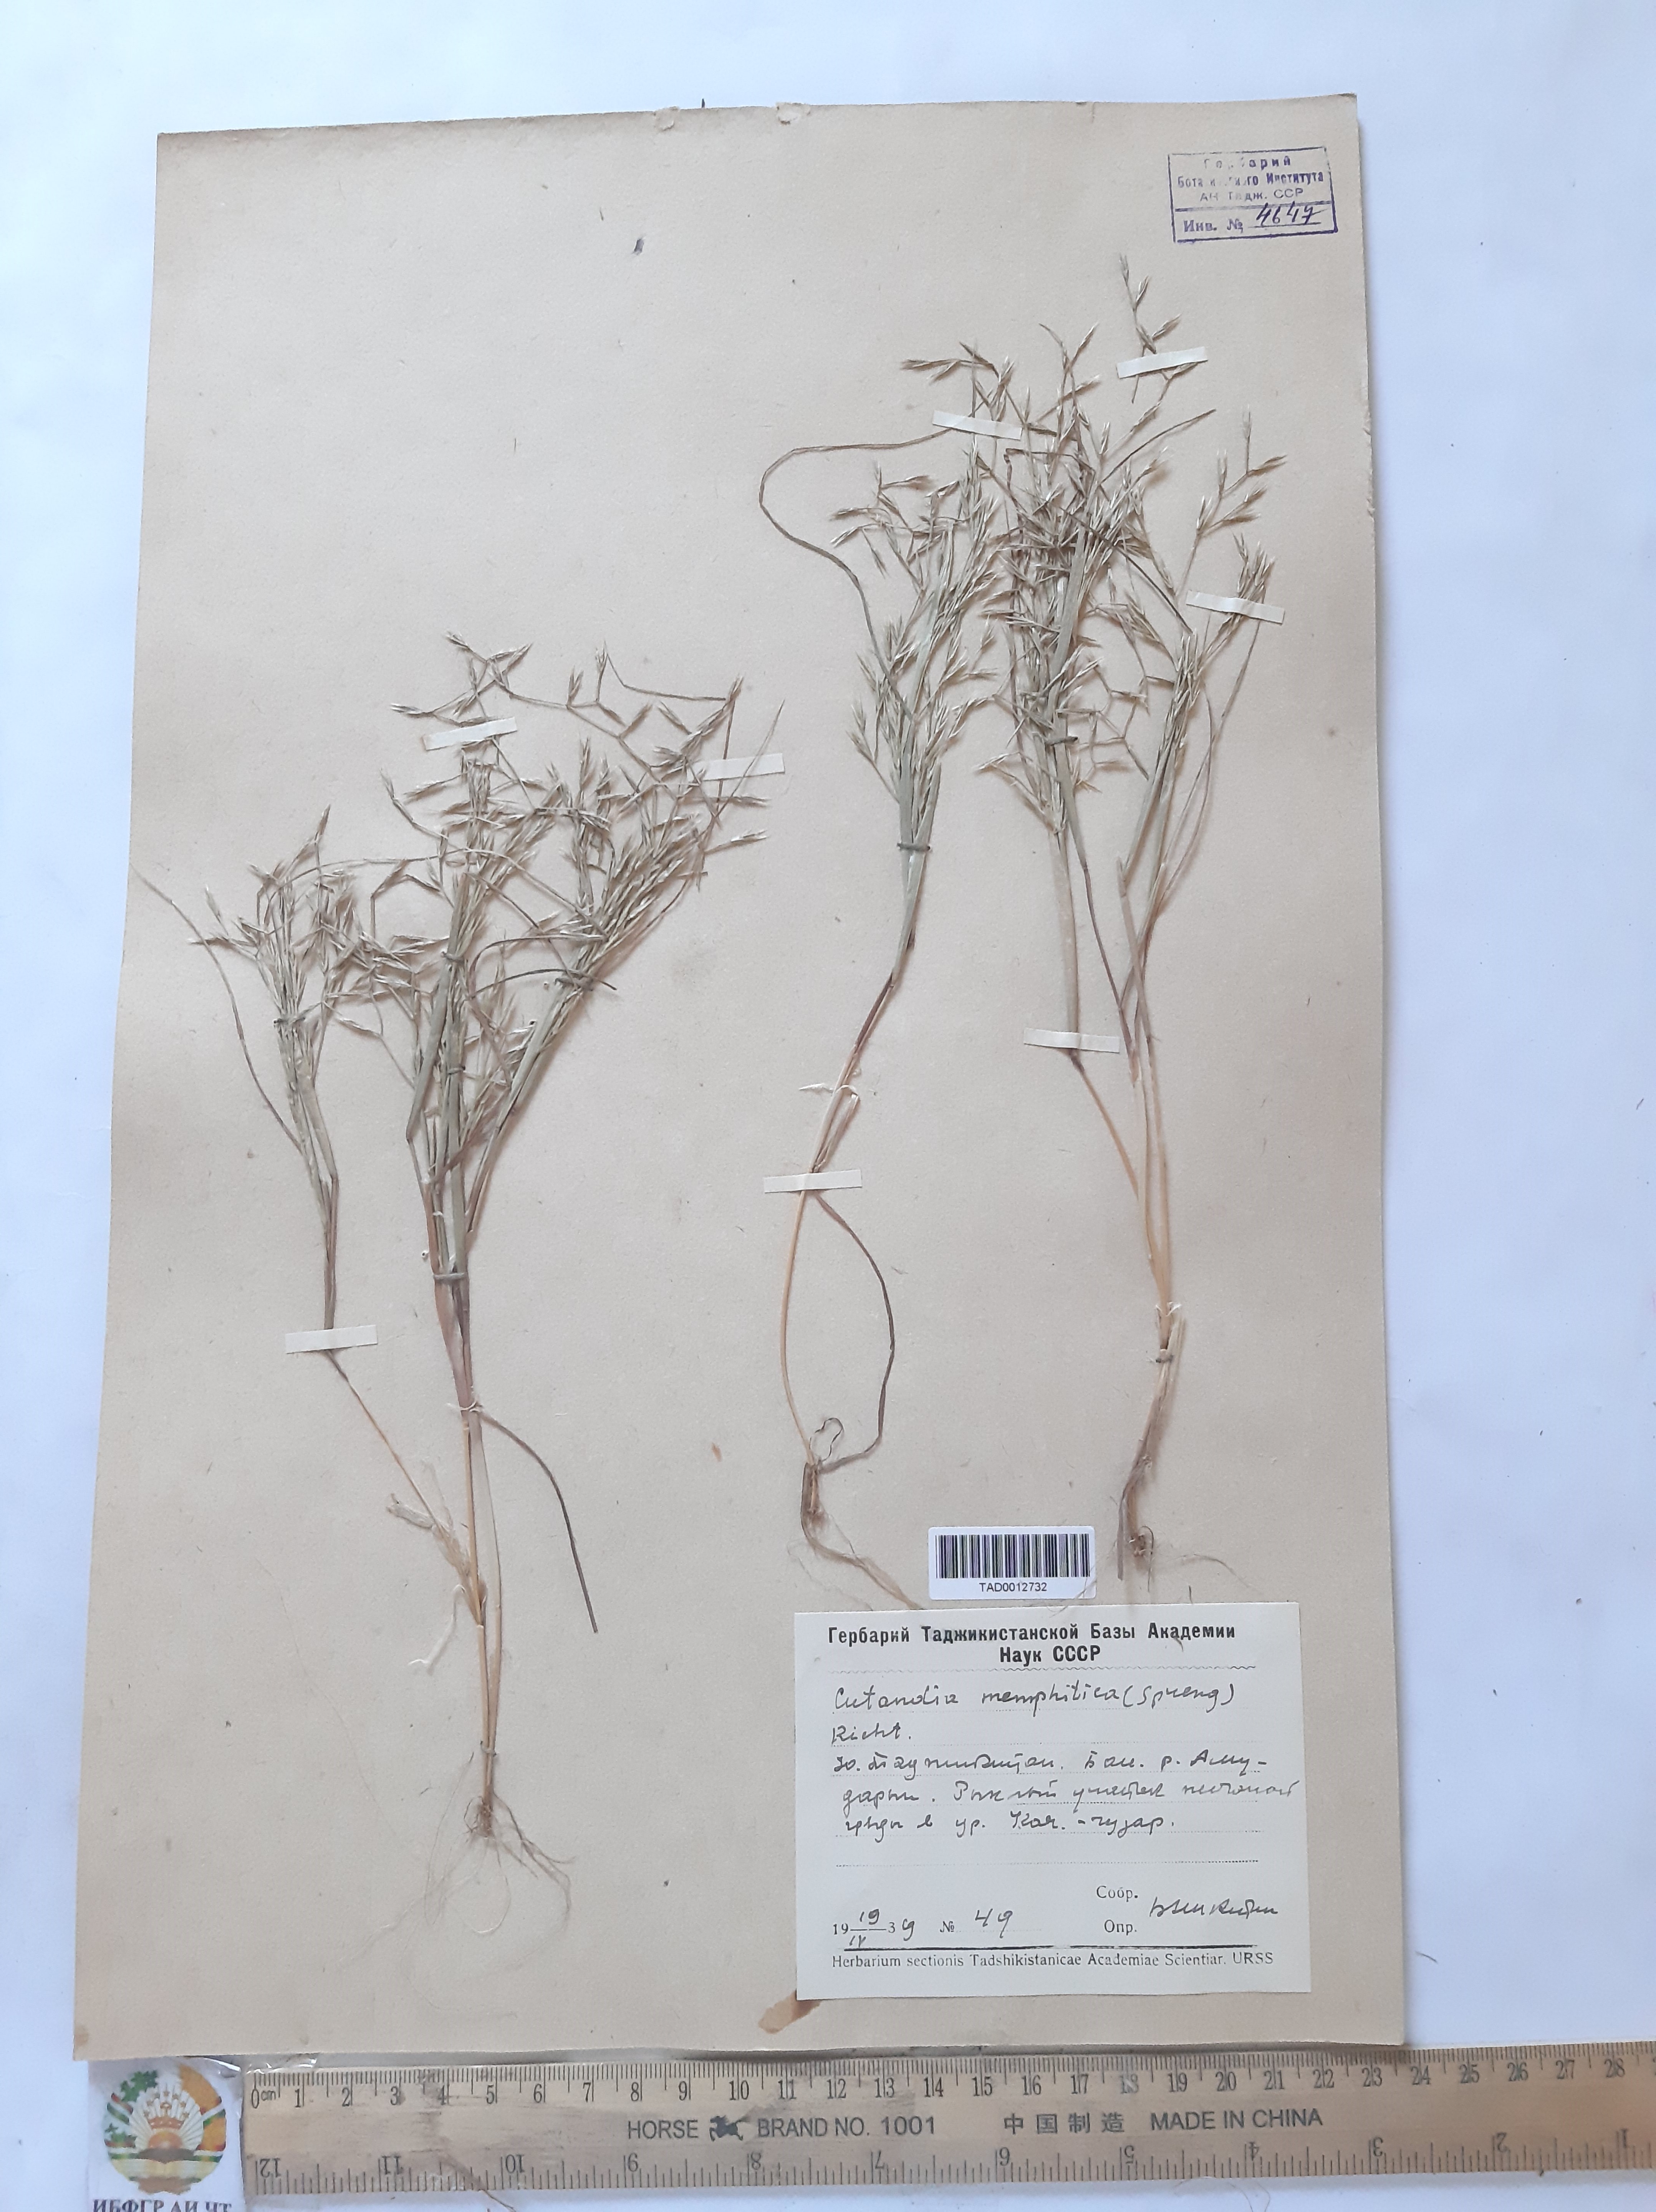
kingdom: Plantae
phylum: Tracheophyta
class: Liliopsida
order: Poales
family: Poaceae
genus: Cutandia
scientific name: Cutandia memphitica
